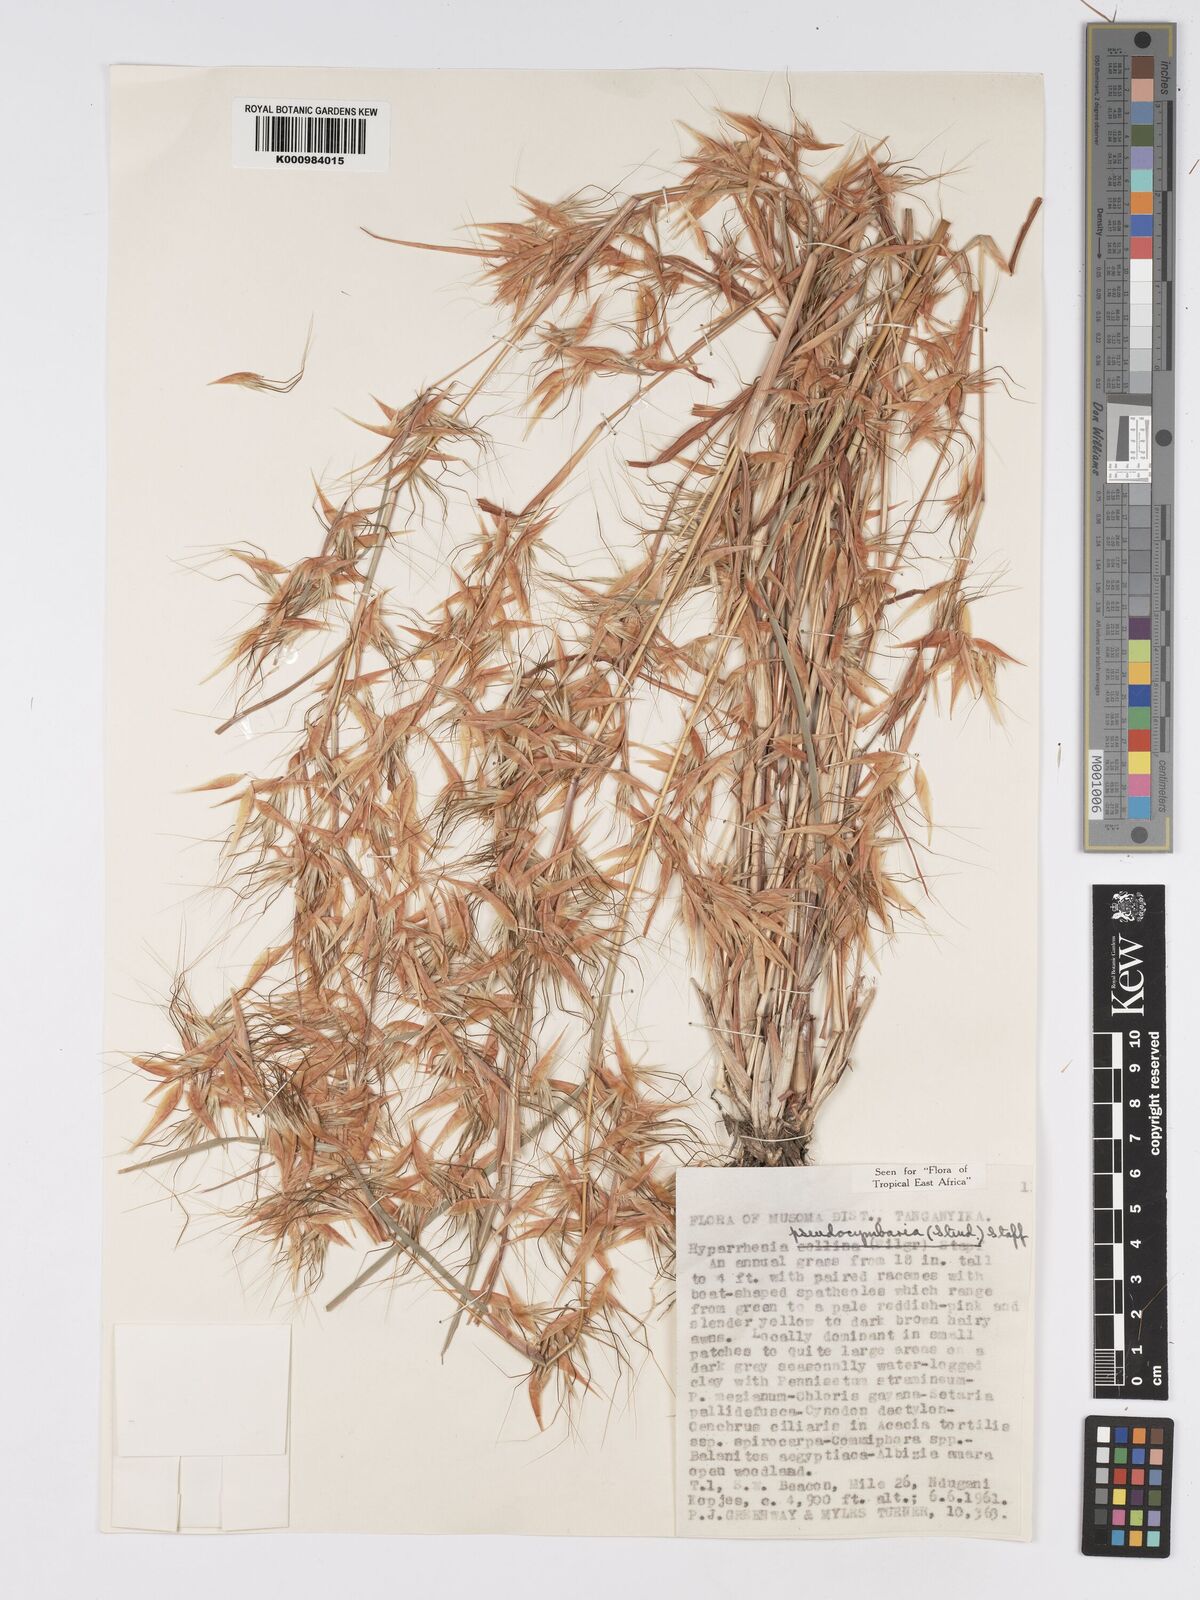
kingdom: Plantae
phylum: Tracheophyta
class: Liliopsida
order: Poales
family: Poaceae
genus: Hyparrhenia
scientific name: Hyparrhenia anthistirioides
